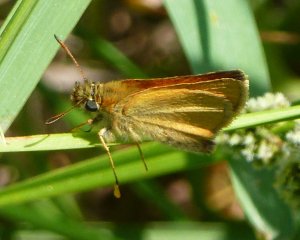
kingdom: Animalia
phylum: Arthropoda
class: Insecta
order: Lepidoptera
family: Hesperiidae
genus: Thymelicus
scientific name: Thymelicus lineola
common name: European Skipper
